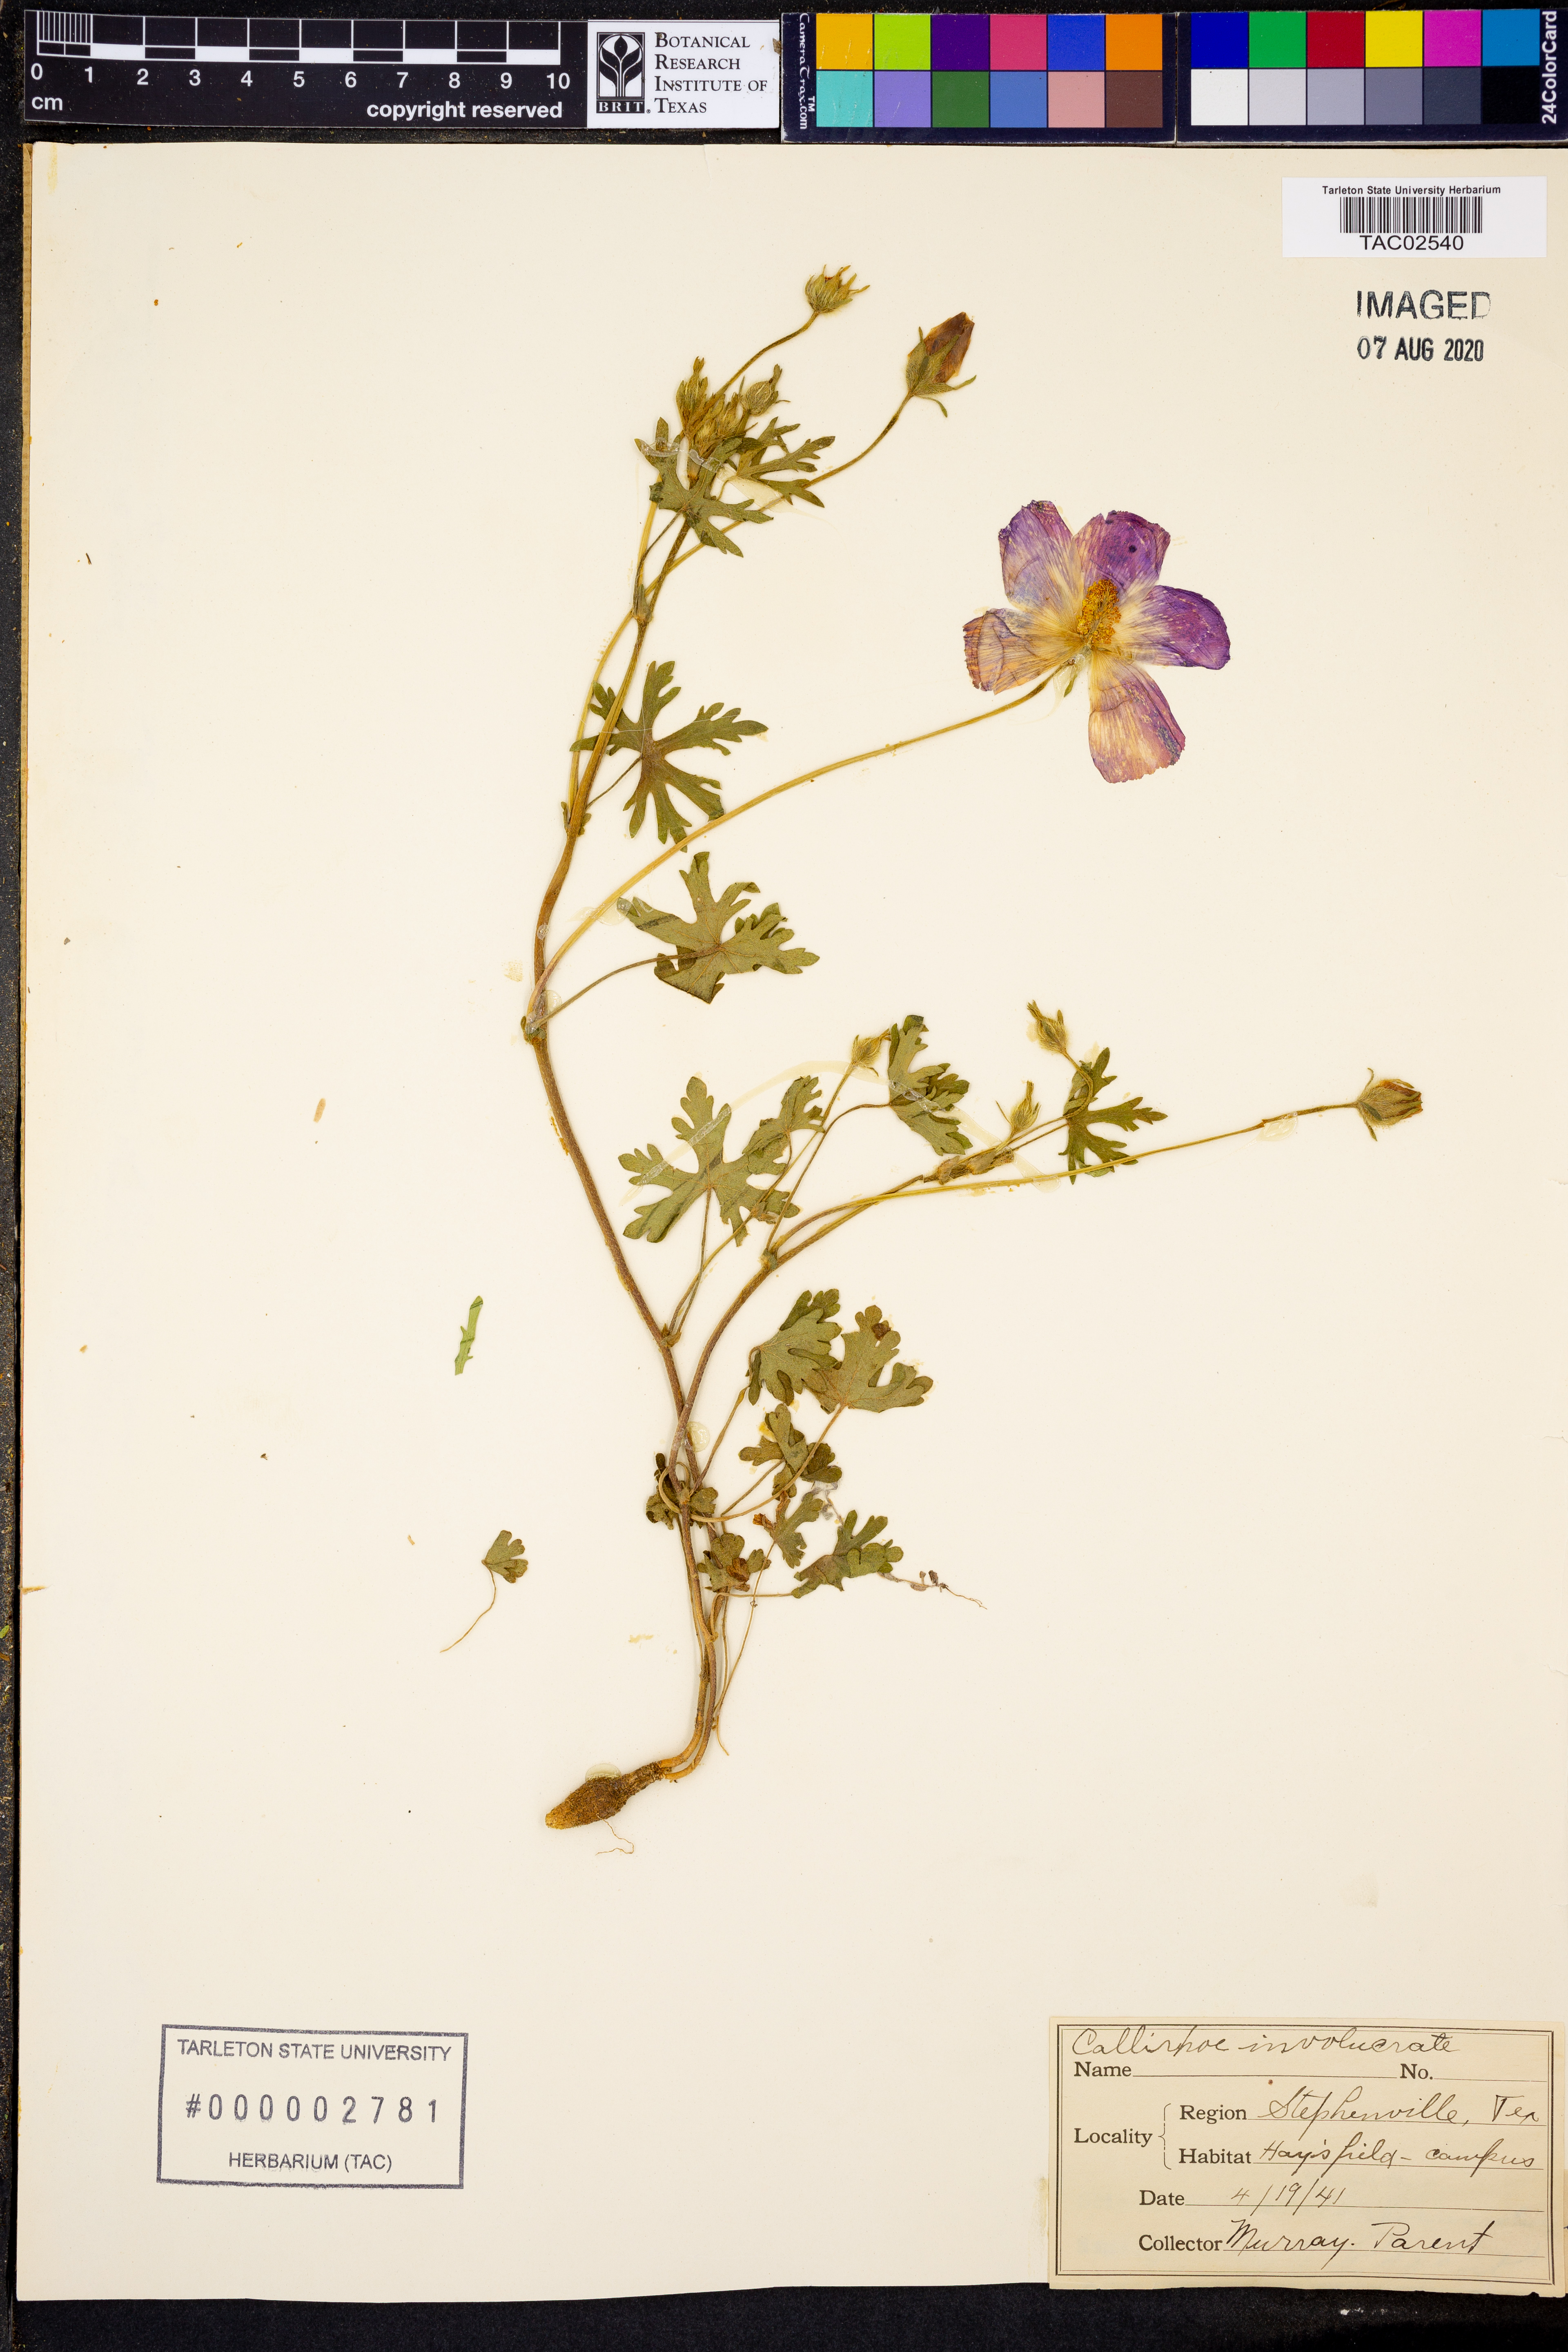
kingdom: Plantae
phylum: Tracheophyta
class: Magnoliopsida
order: Malvales
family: Malvaceae
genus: Callirhoe
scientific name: Callirhoe involucrata
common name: Purple poppy-mallow
